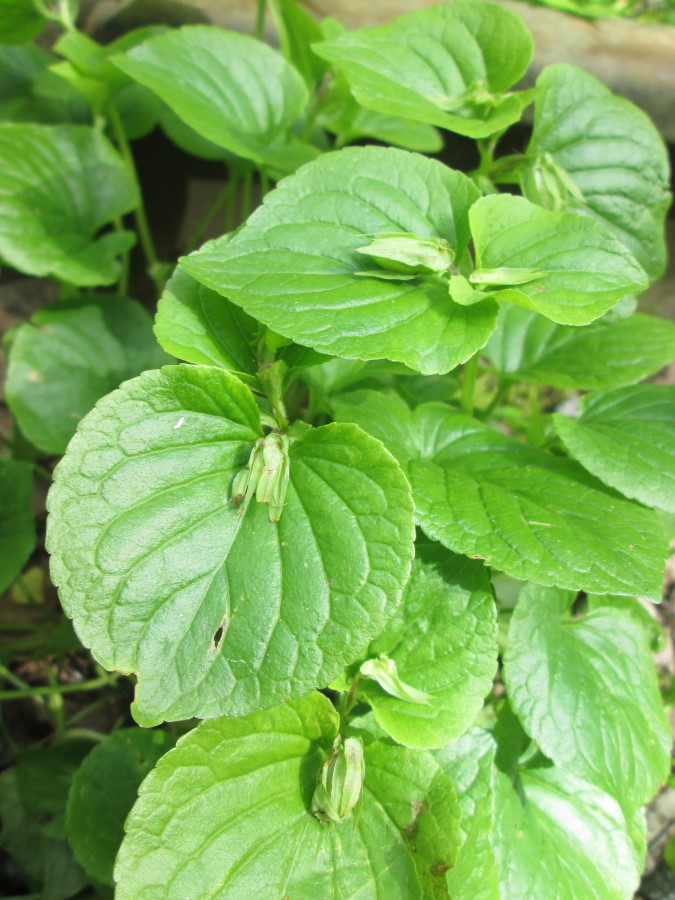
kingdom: Plantae
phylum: Tracheophyta
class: Magnoliopsida
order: Malpighiales
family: Violaceae
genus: Viola
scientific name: Viola mirabilis
